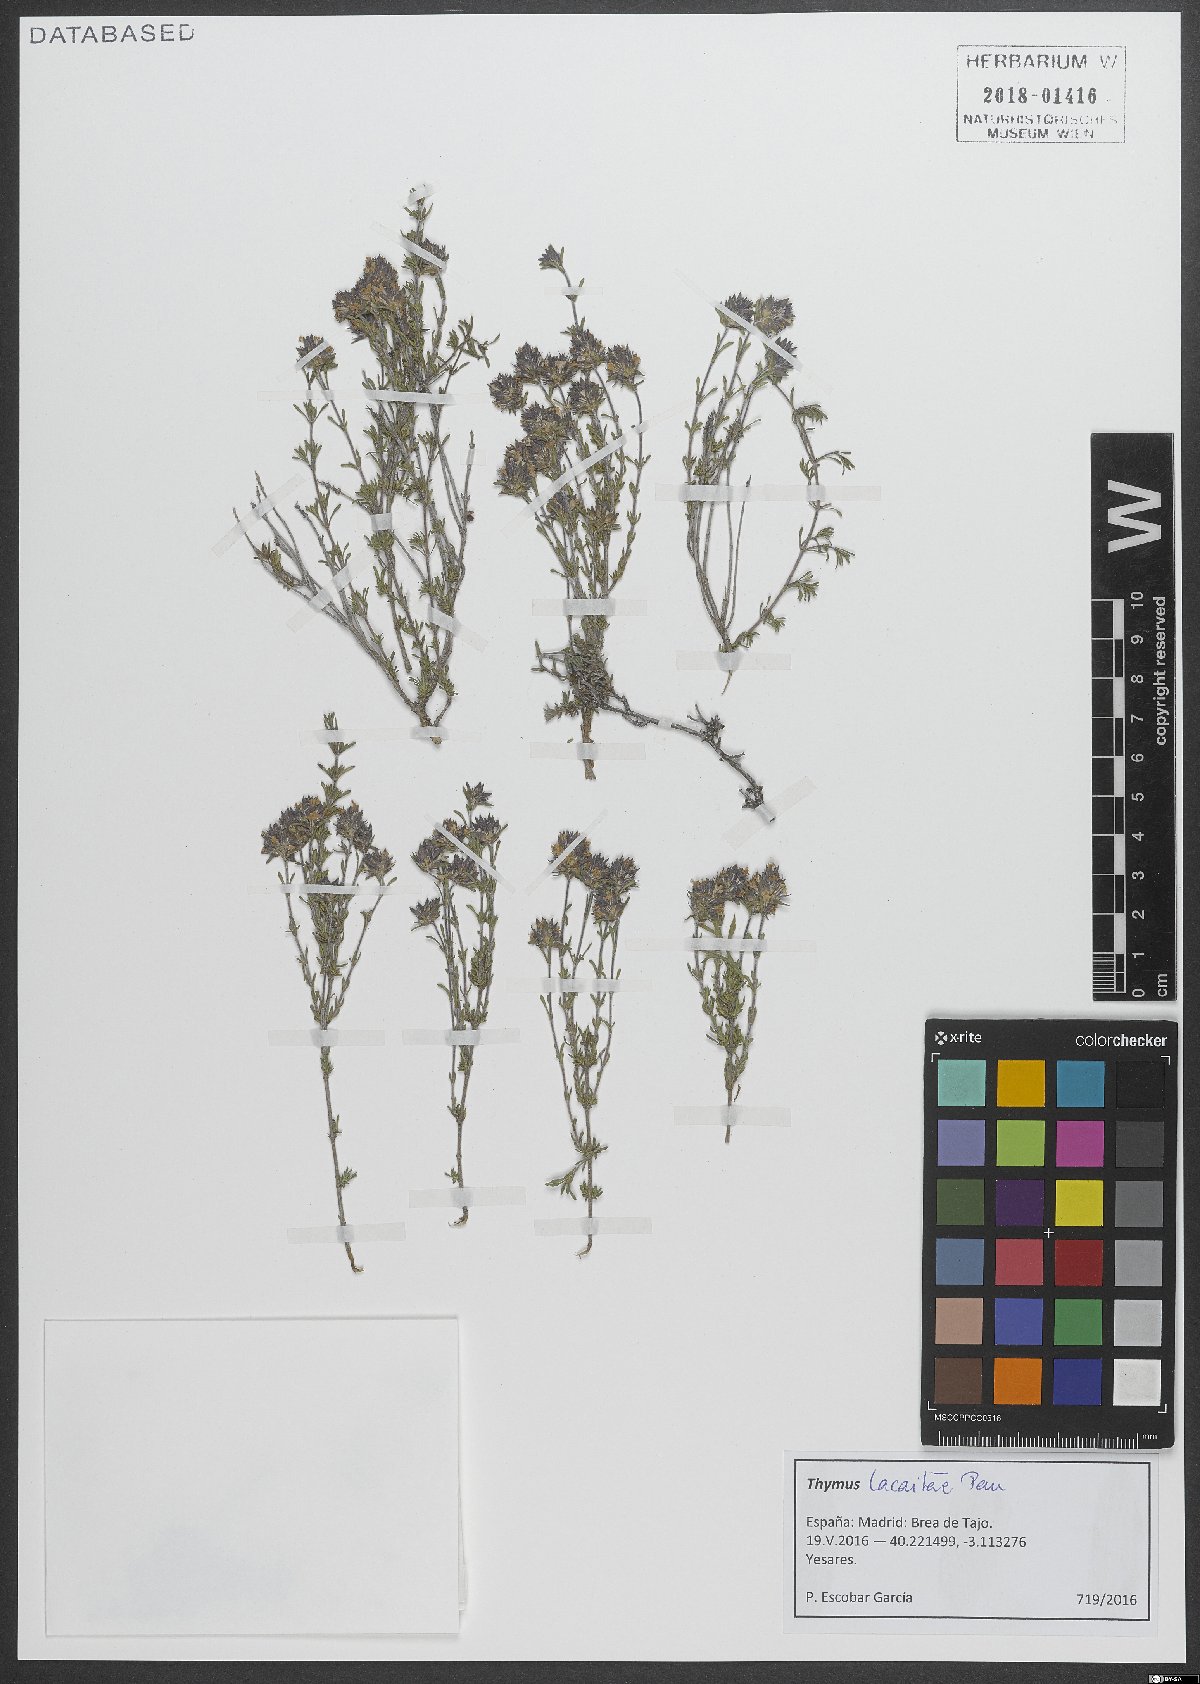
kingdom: Plantae
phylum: Tracheophyta
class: Magnoliopsida
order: Lamiales
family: Lamiaceae
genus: Thymus
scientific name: Thymus lacaitae
